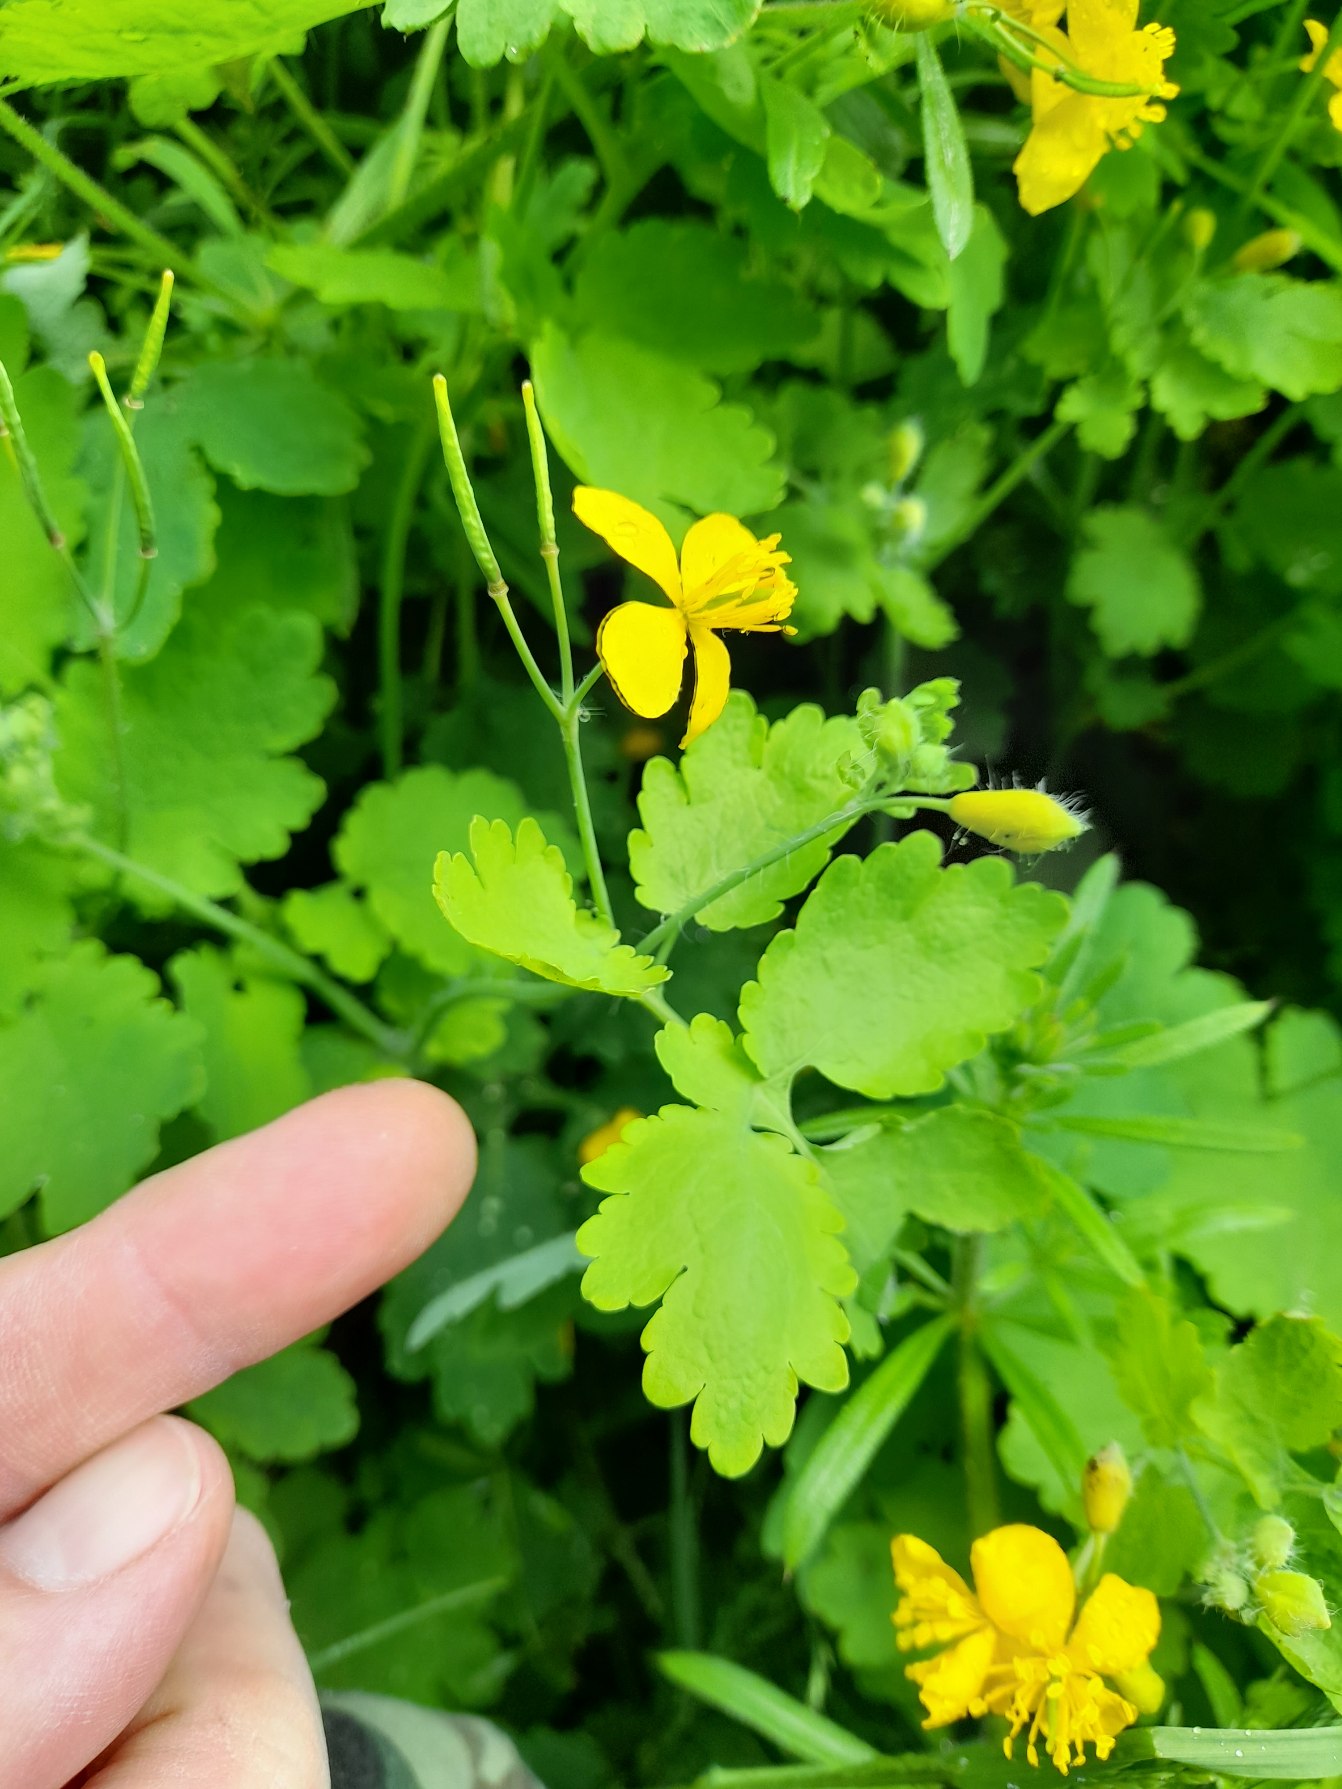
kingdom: Plantae
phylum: Tracheophyta
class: Magnoliopsida
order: Ranunculales
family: Papaveraceae
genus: Chelidonium
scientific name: Chelidonium majus
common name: Svaleurt
